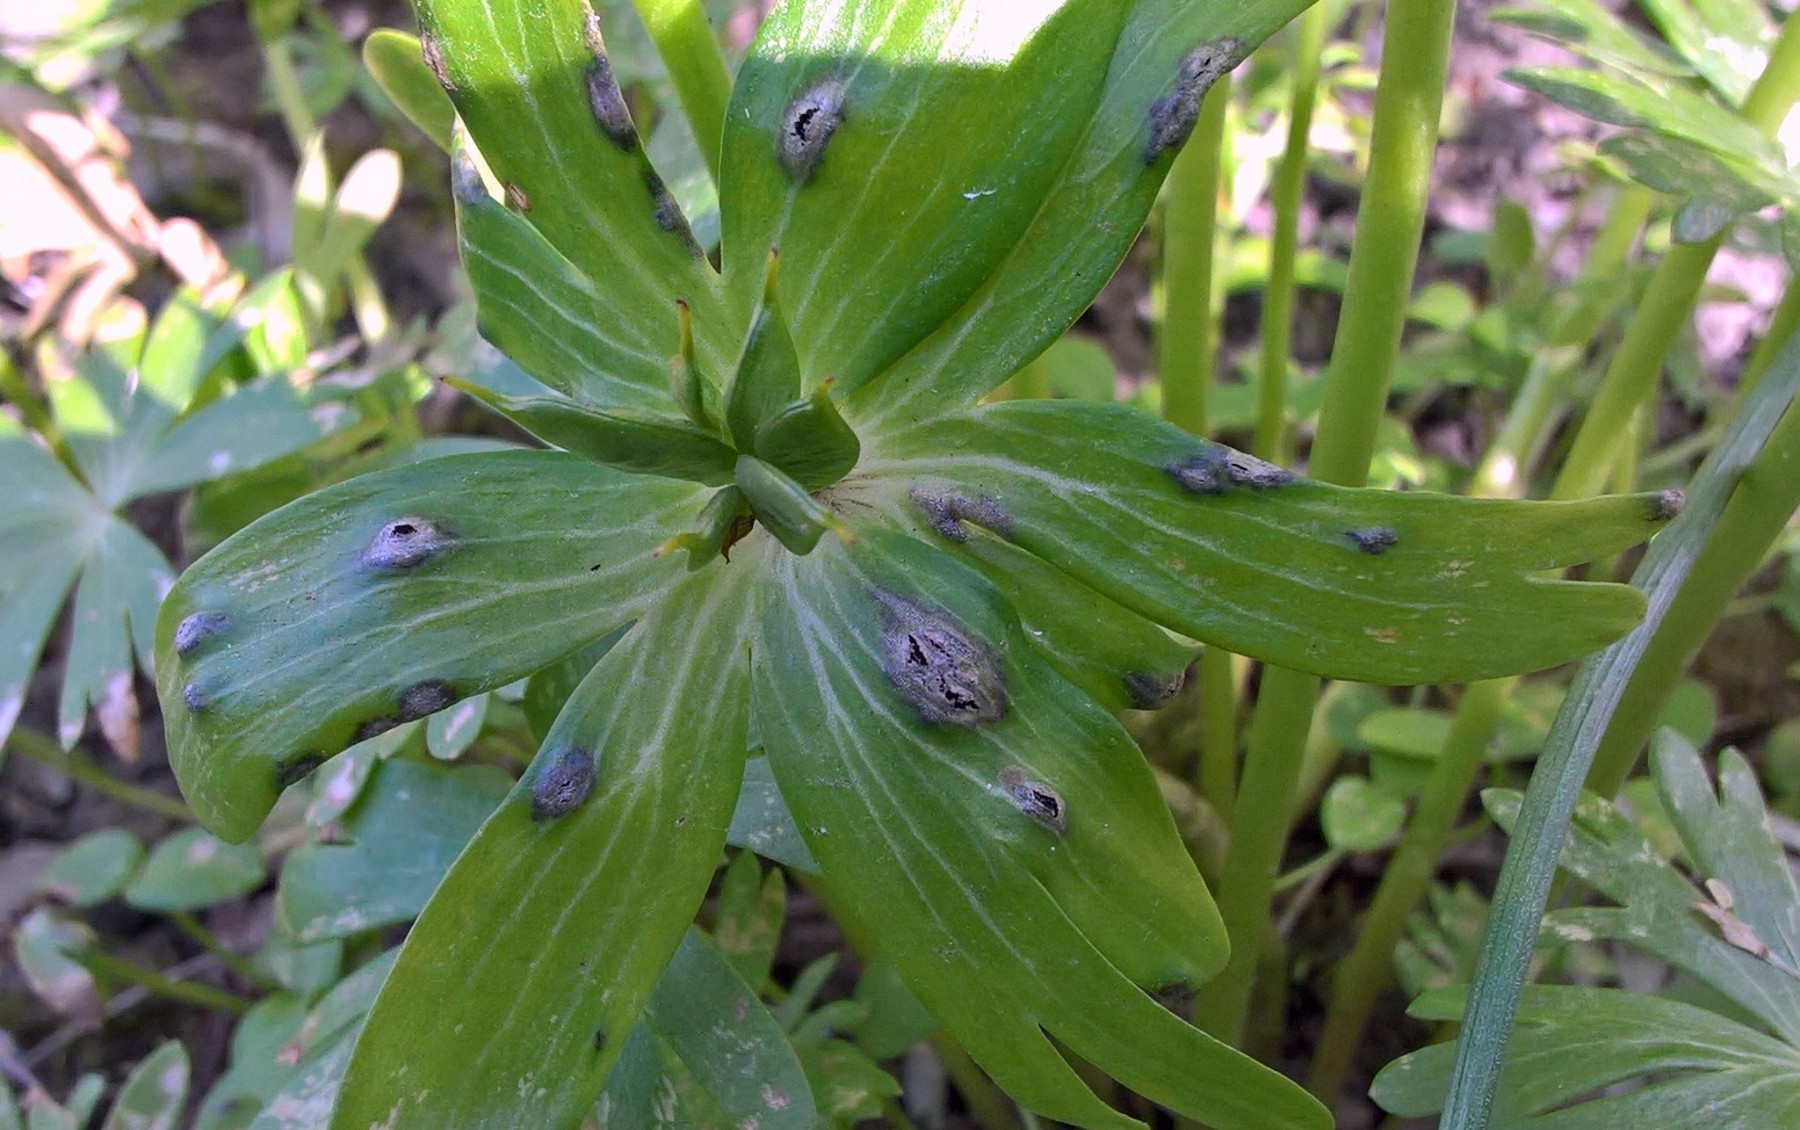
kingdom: Fungi
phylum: Basidiomycota
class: Ustilaginomycetes
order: Urocystidales
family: Urocystidaceae
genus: Urocystis
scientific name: Urocystis eranthidis
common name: erantis-brand
